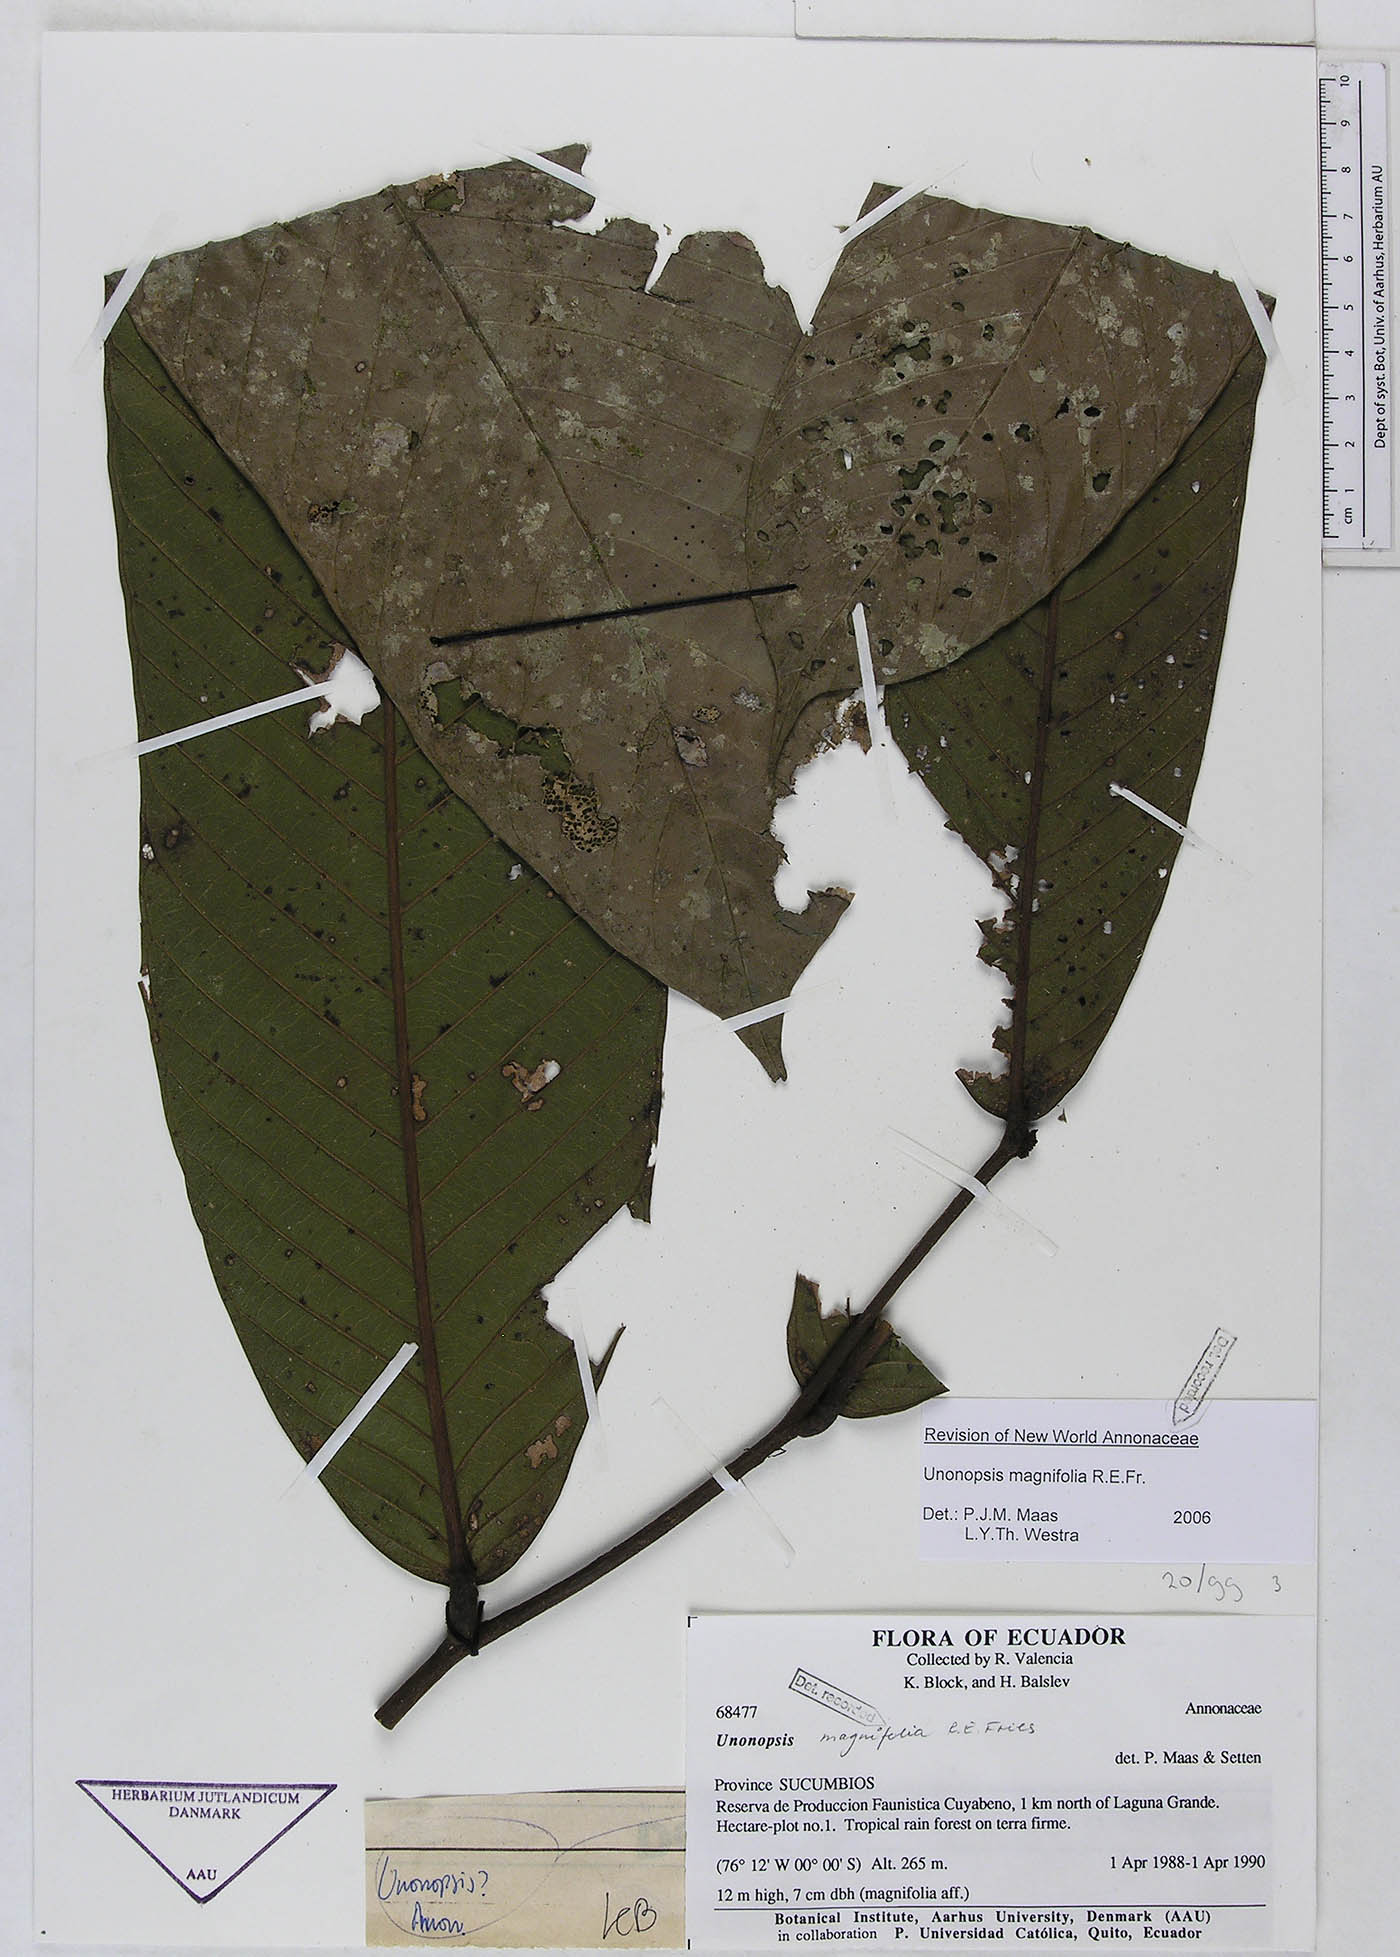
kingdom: Plantae
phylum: Tracheophyta
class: Magnoliopsida
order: Magnoliales
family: Annonaceae
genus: Unonopsis
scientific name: Unonopsis magnifolia
